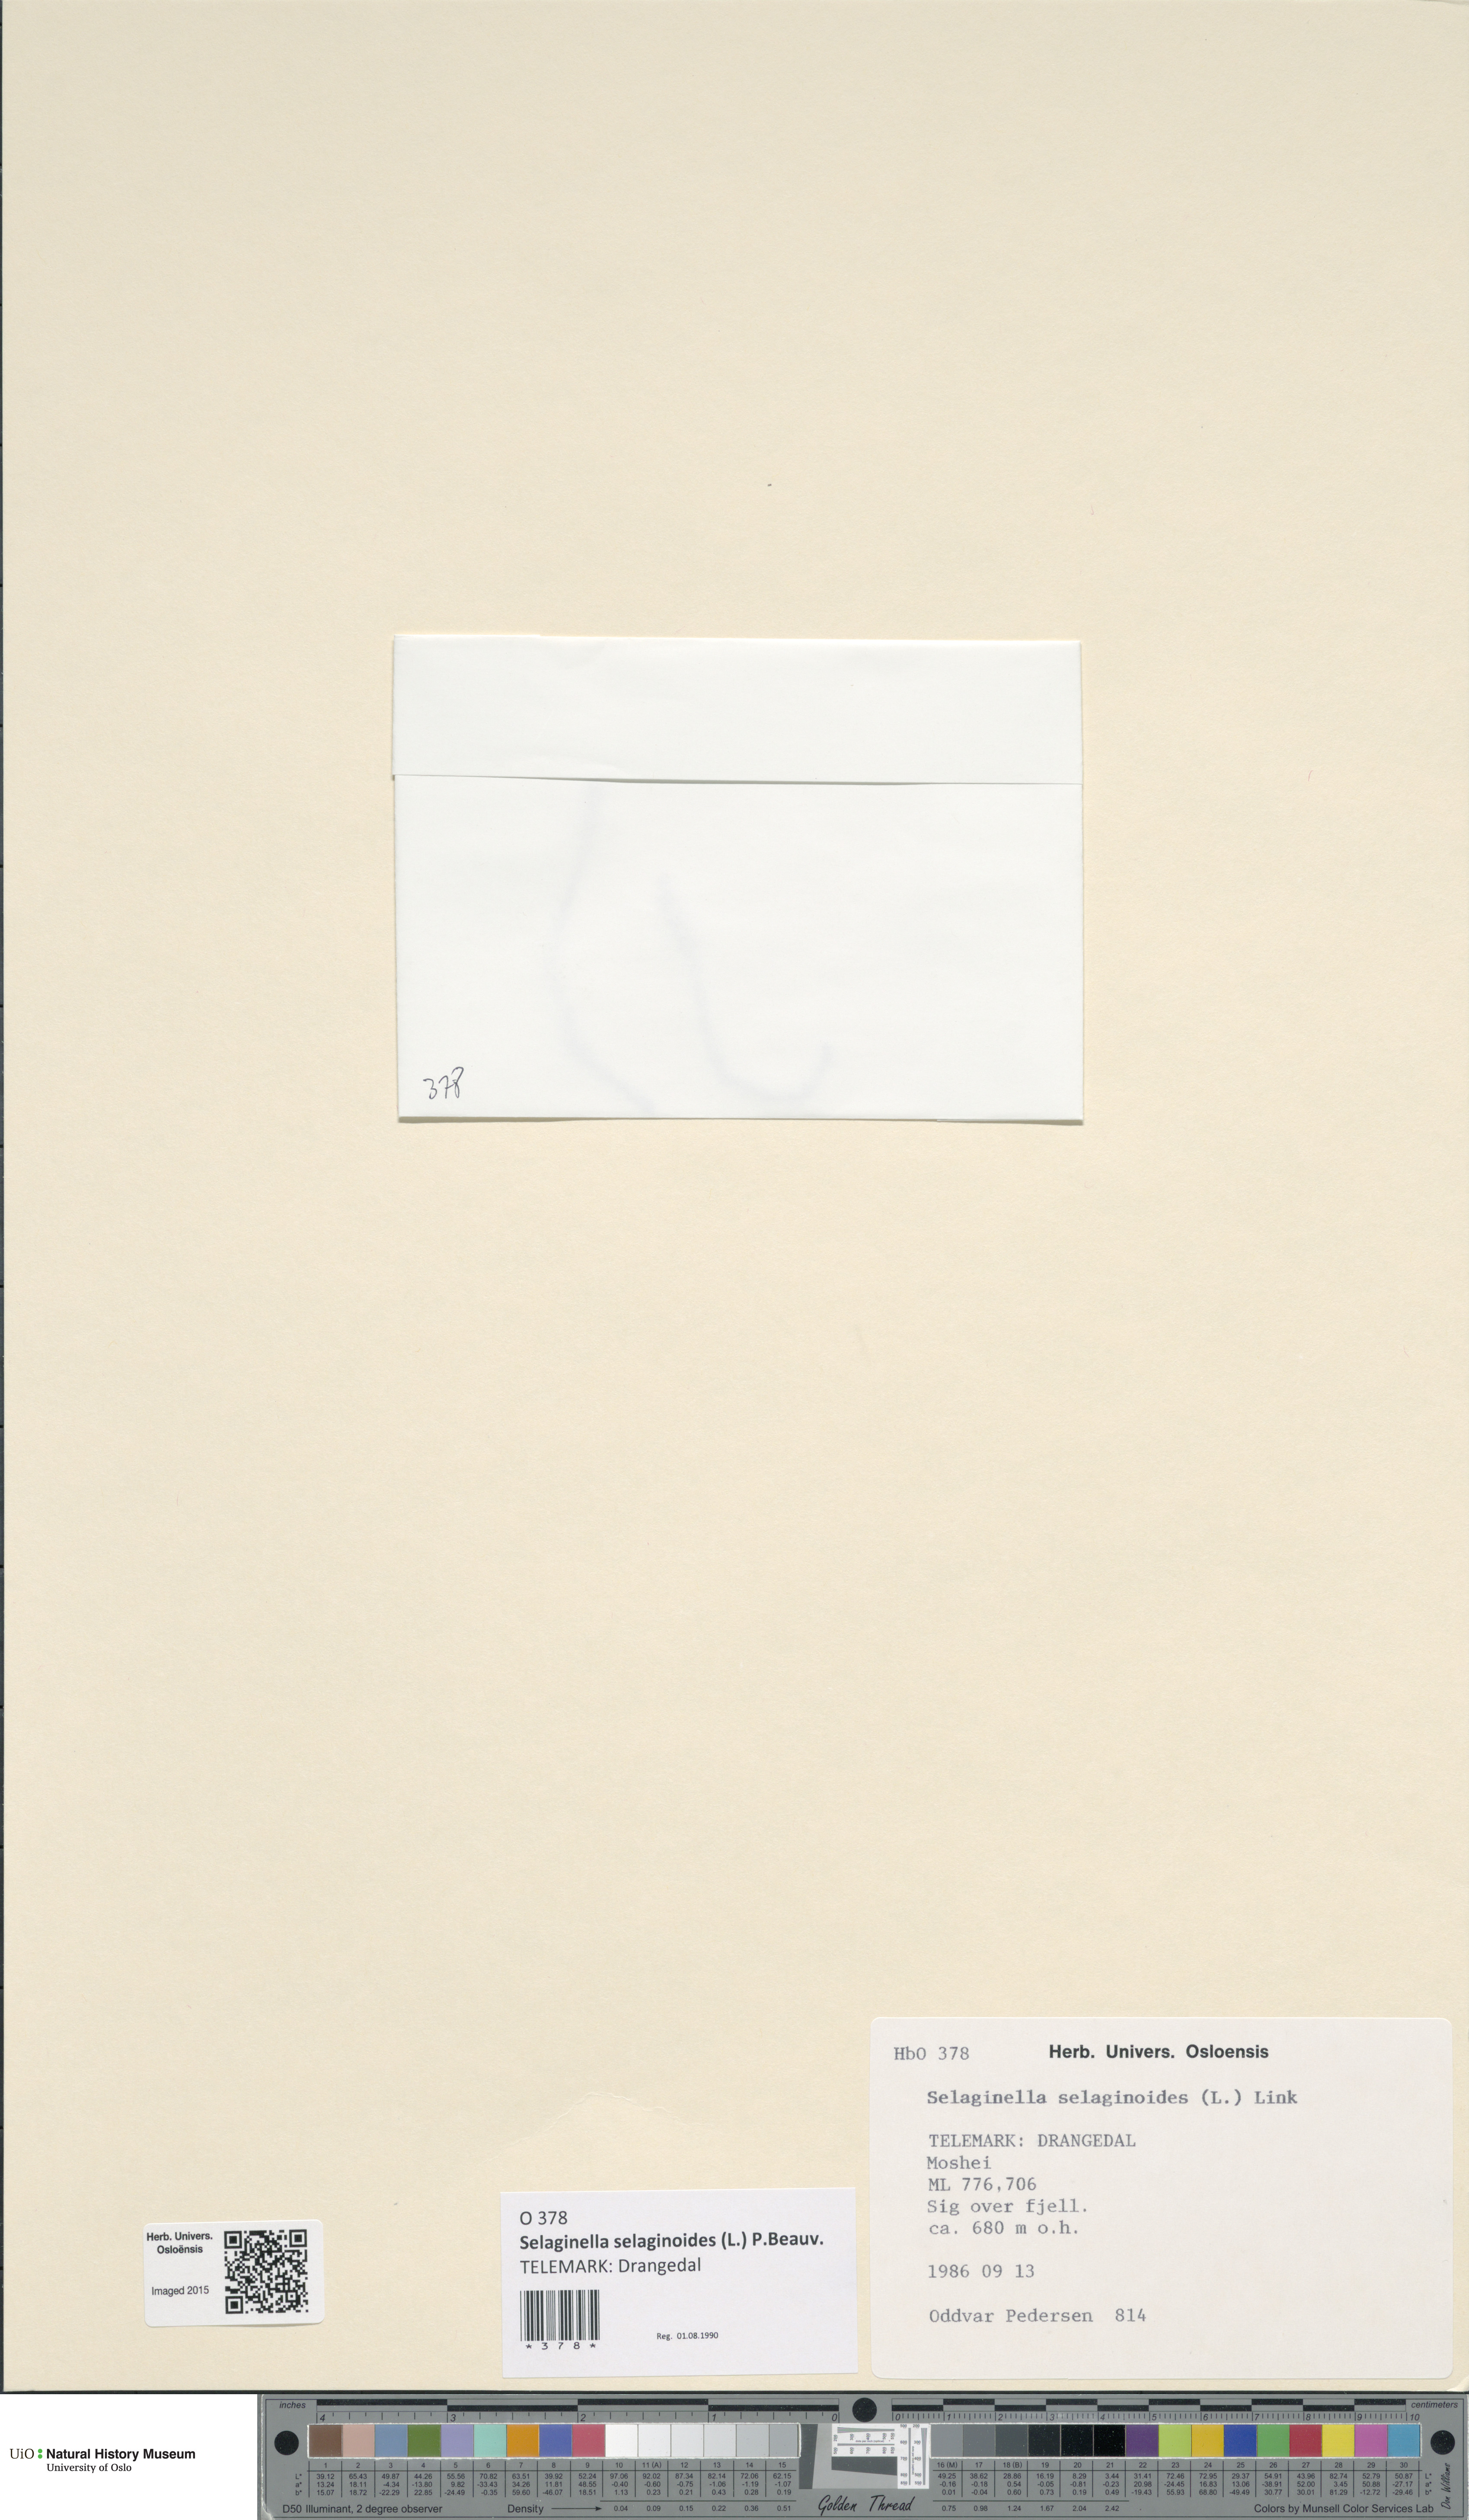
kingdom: Plantae
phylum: Tracheophyta
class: Lycopodiopsida
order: Selaginellales
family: Selaginellaceae
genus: Selaginella
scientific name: Selaginella selaginoides
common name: Prickly mountain-moss
